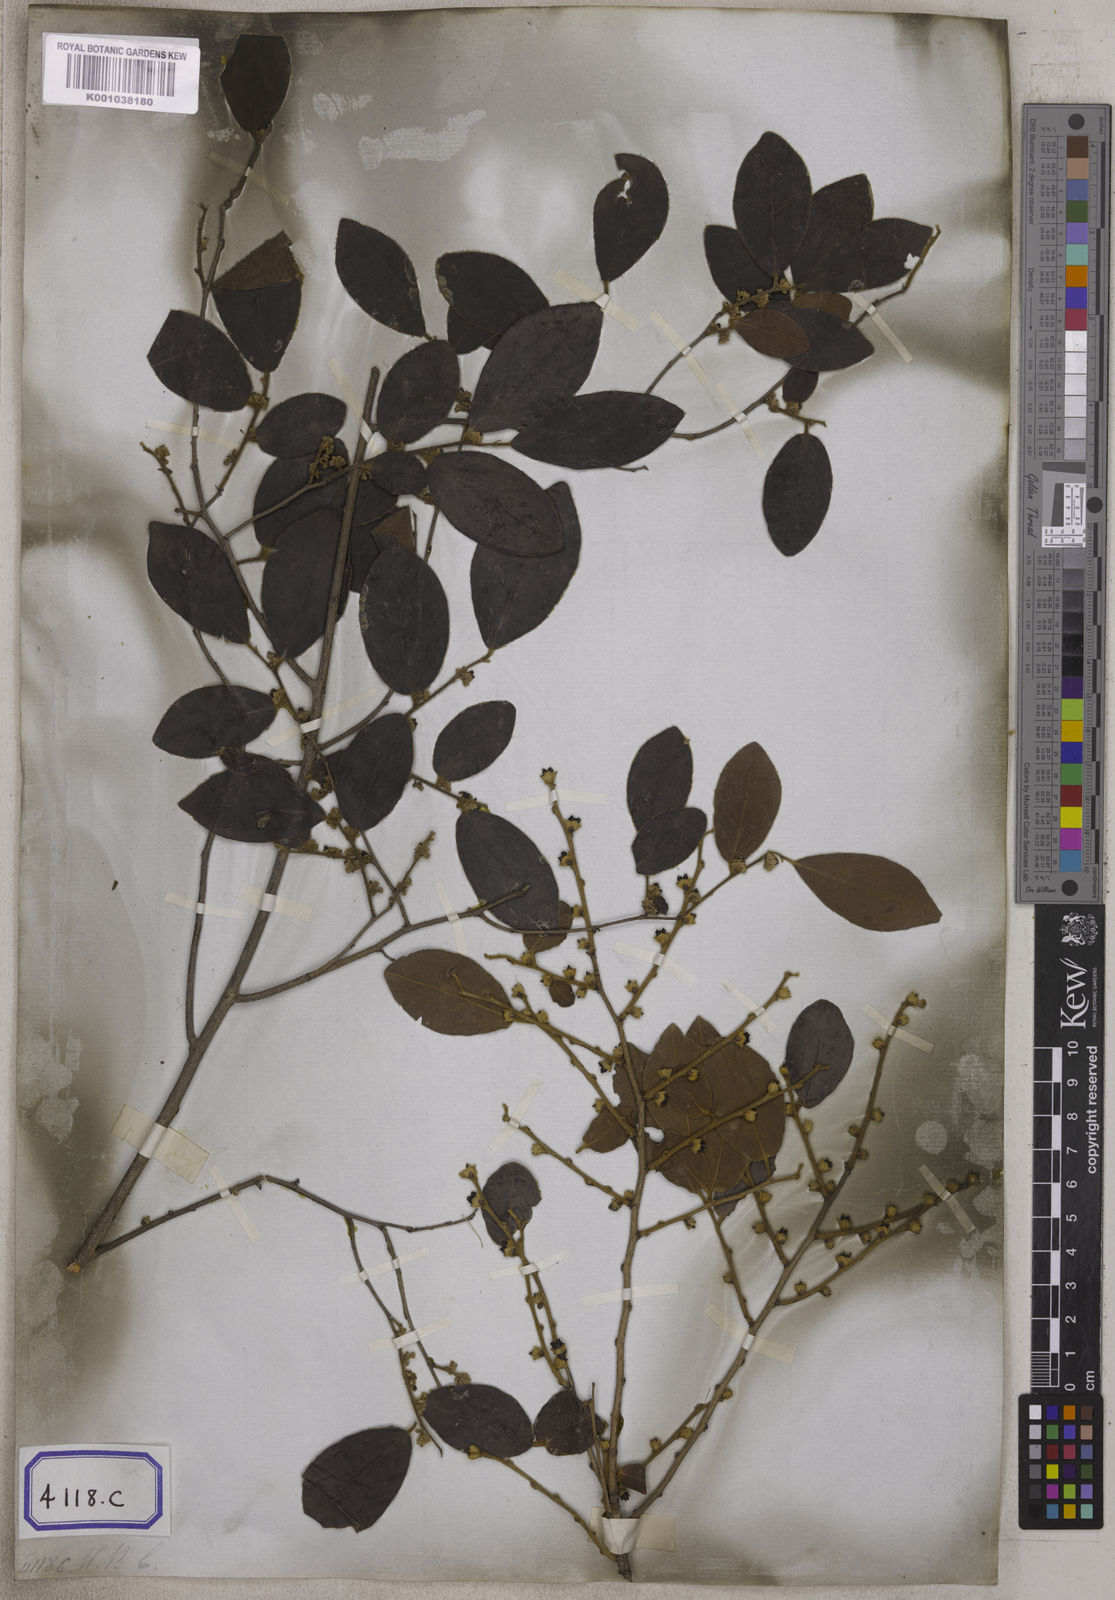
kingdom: Plantae
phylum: Tracheophyta
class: Magnoliopsida
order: Ericales
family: Ebenaceae
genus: Diospyros
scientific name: Diospyros chloroxylon
